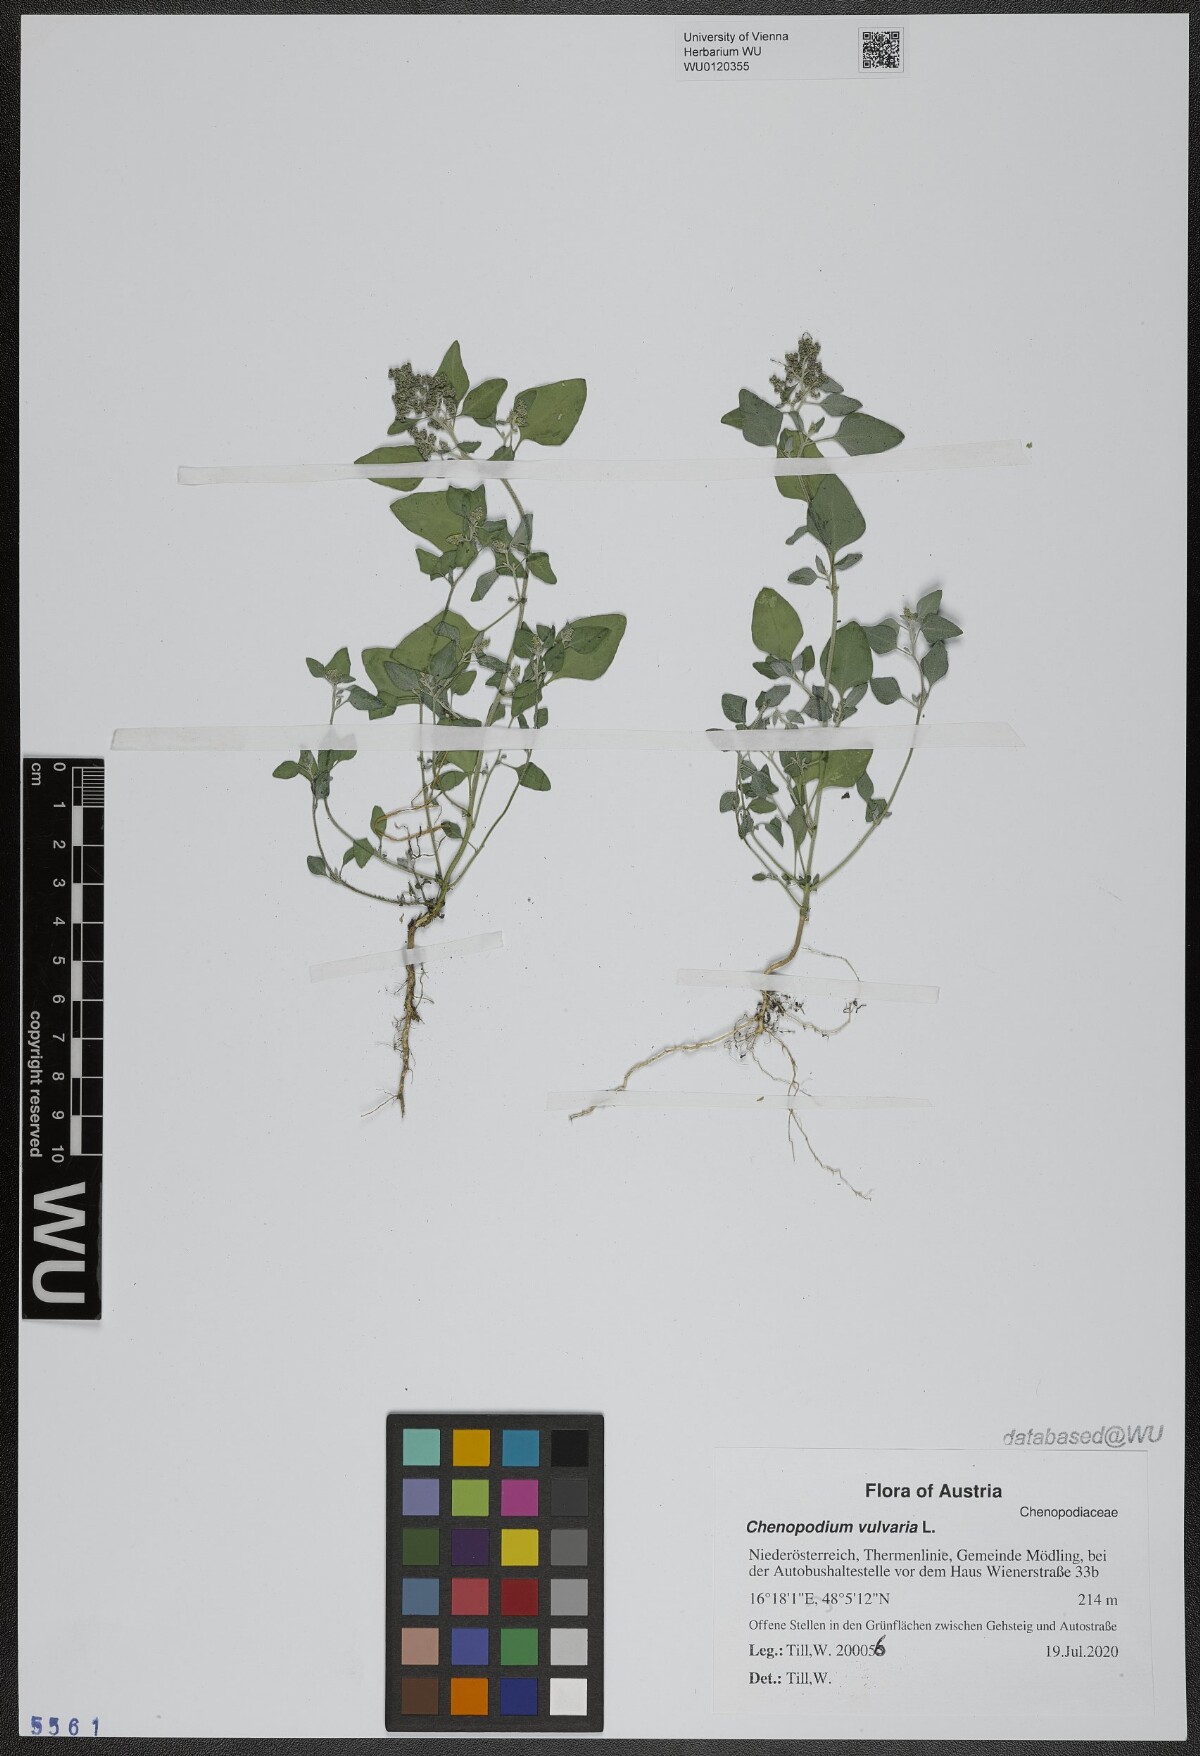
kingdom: Plantae
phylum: Tracheophyta
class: Magnoliopsida
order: Caryophyllales
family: Amaranthaceae
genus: Chenopodium
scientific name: Chenopodium vulvaria
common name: Stinking goosefoot
